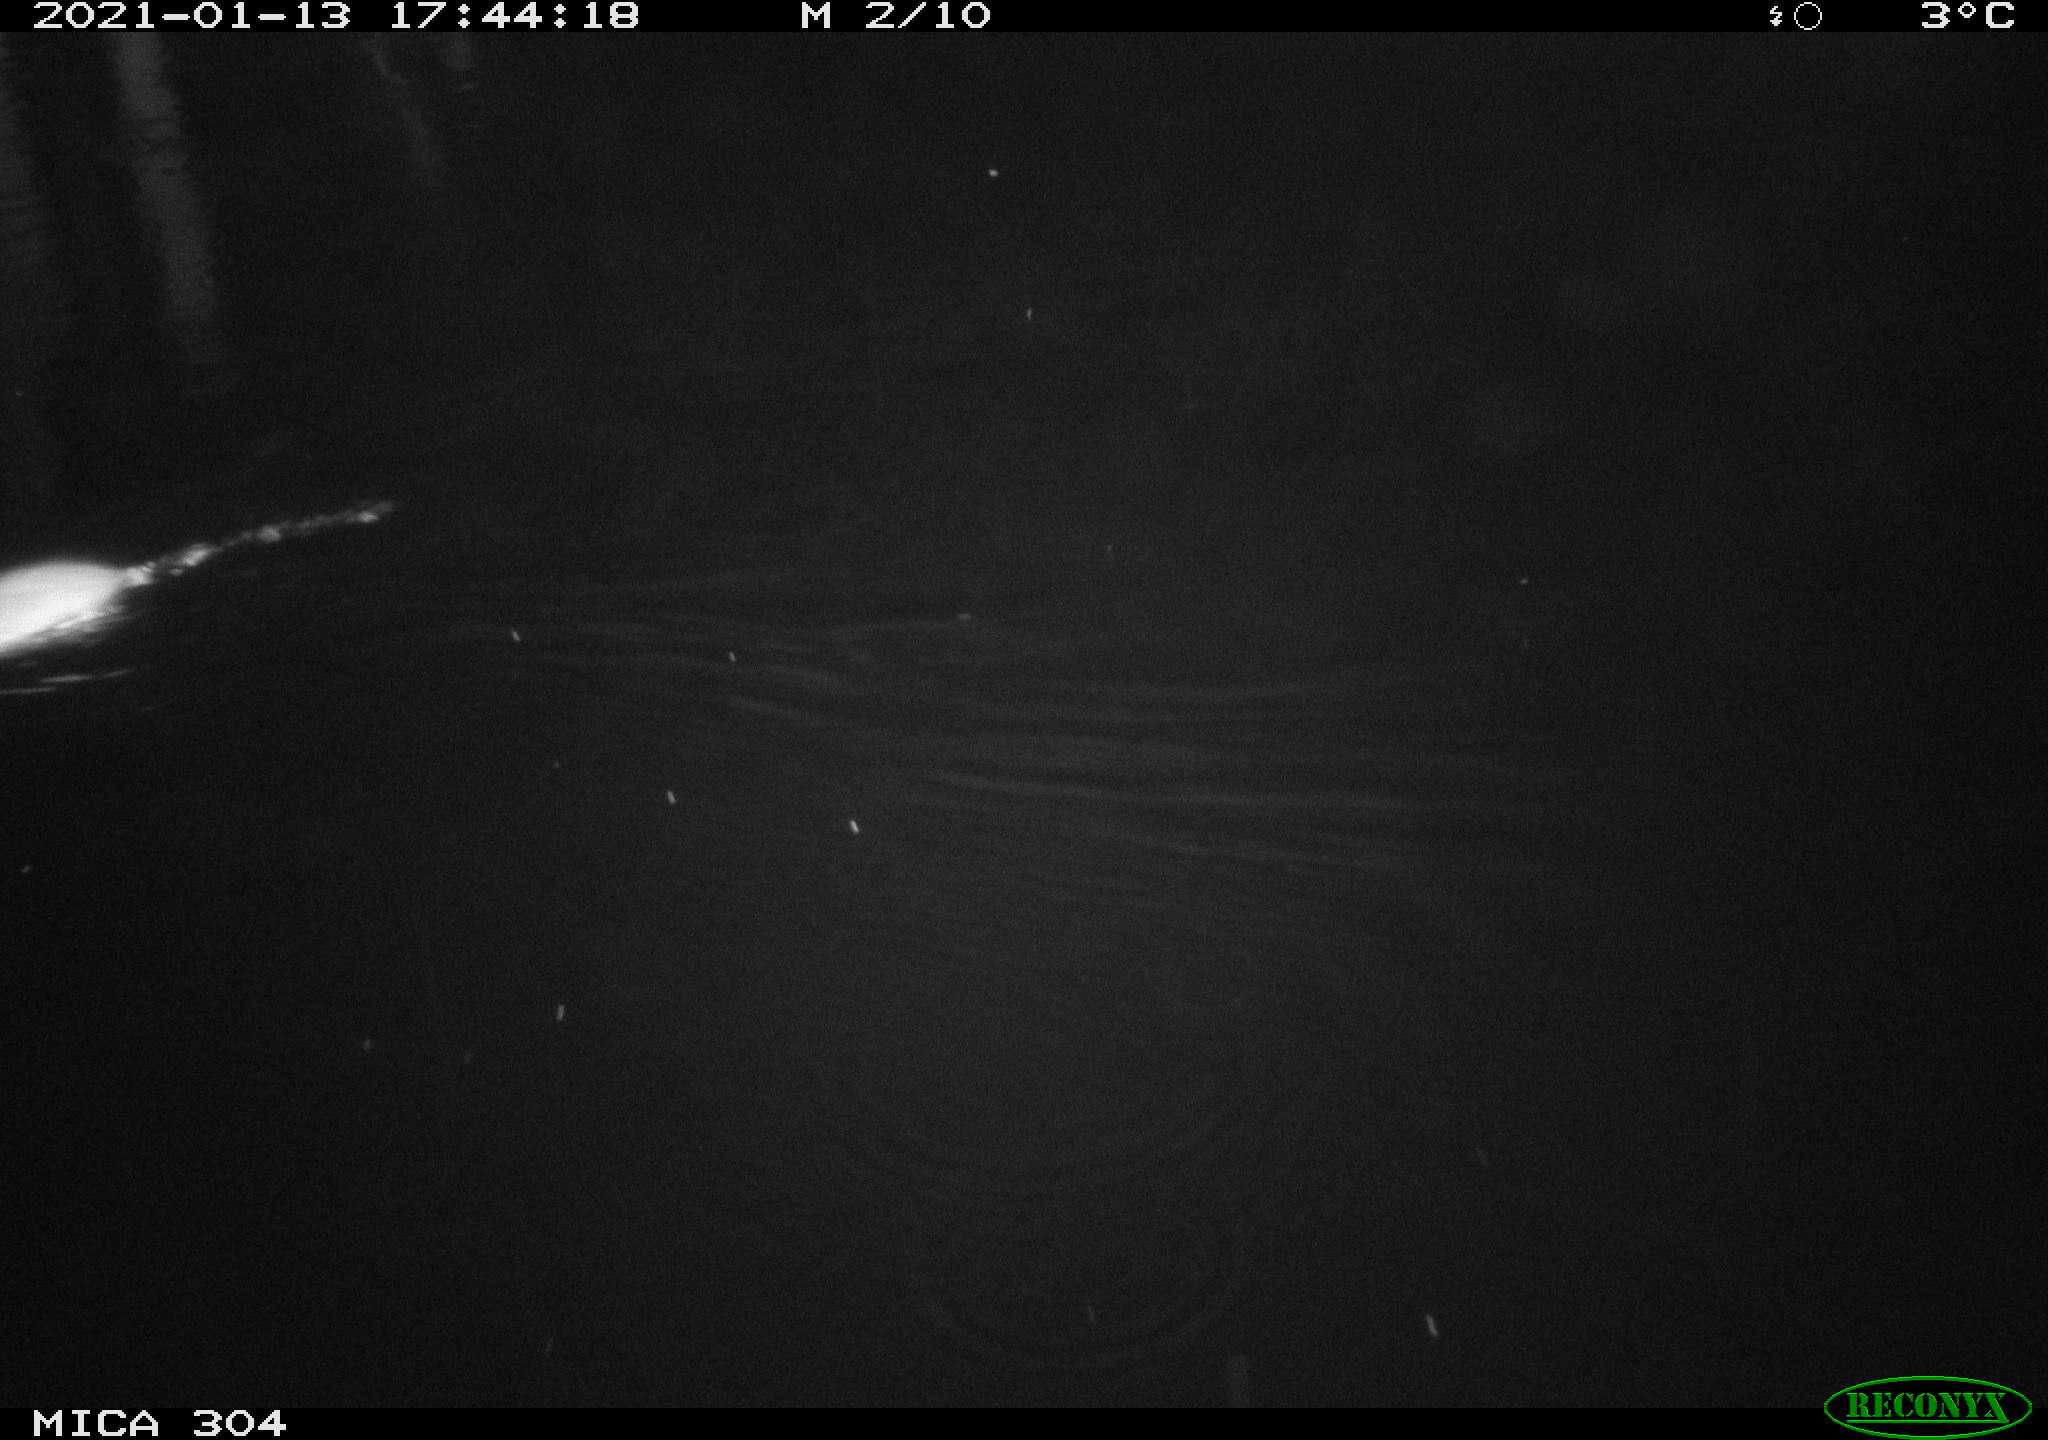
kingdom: Animalia
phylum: Chordata
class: Mammalia
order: Rodentia
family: Muridae
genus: Rattus
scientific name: Rattus norvegicus
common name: Brown rat
